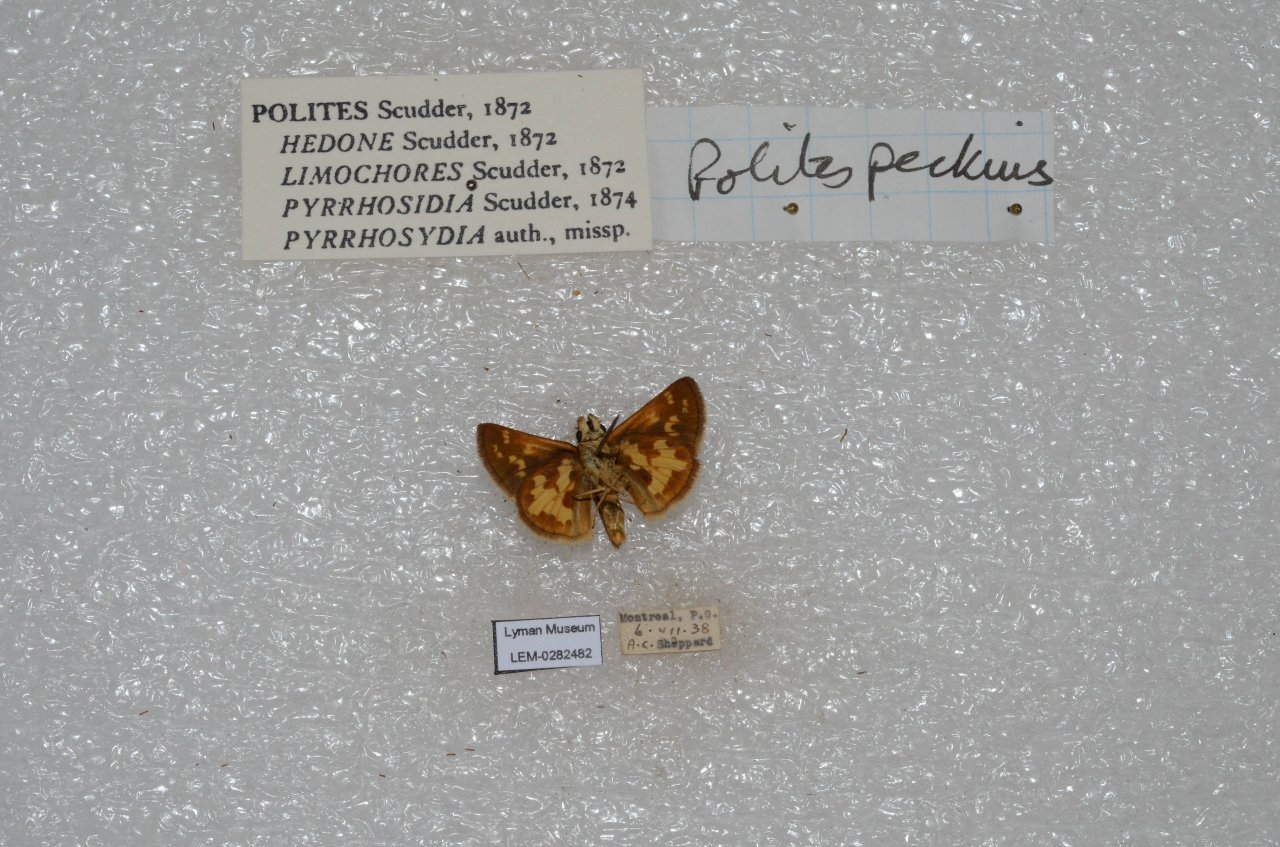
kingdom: Animalia
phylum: Arthropoda
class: Insecta
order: Lepidoptera
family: Hesperiidae
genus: Polites
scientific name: Polites coras
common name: Peck's Skipper
